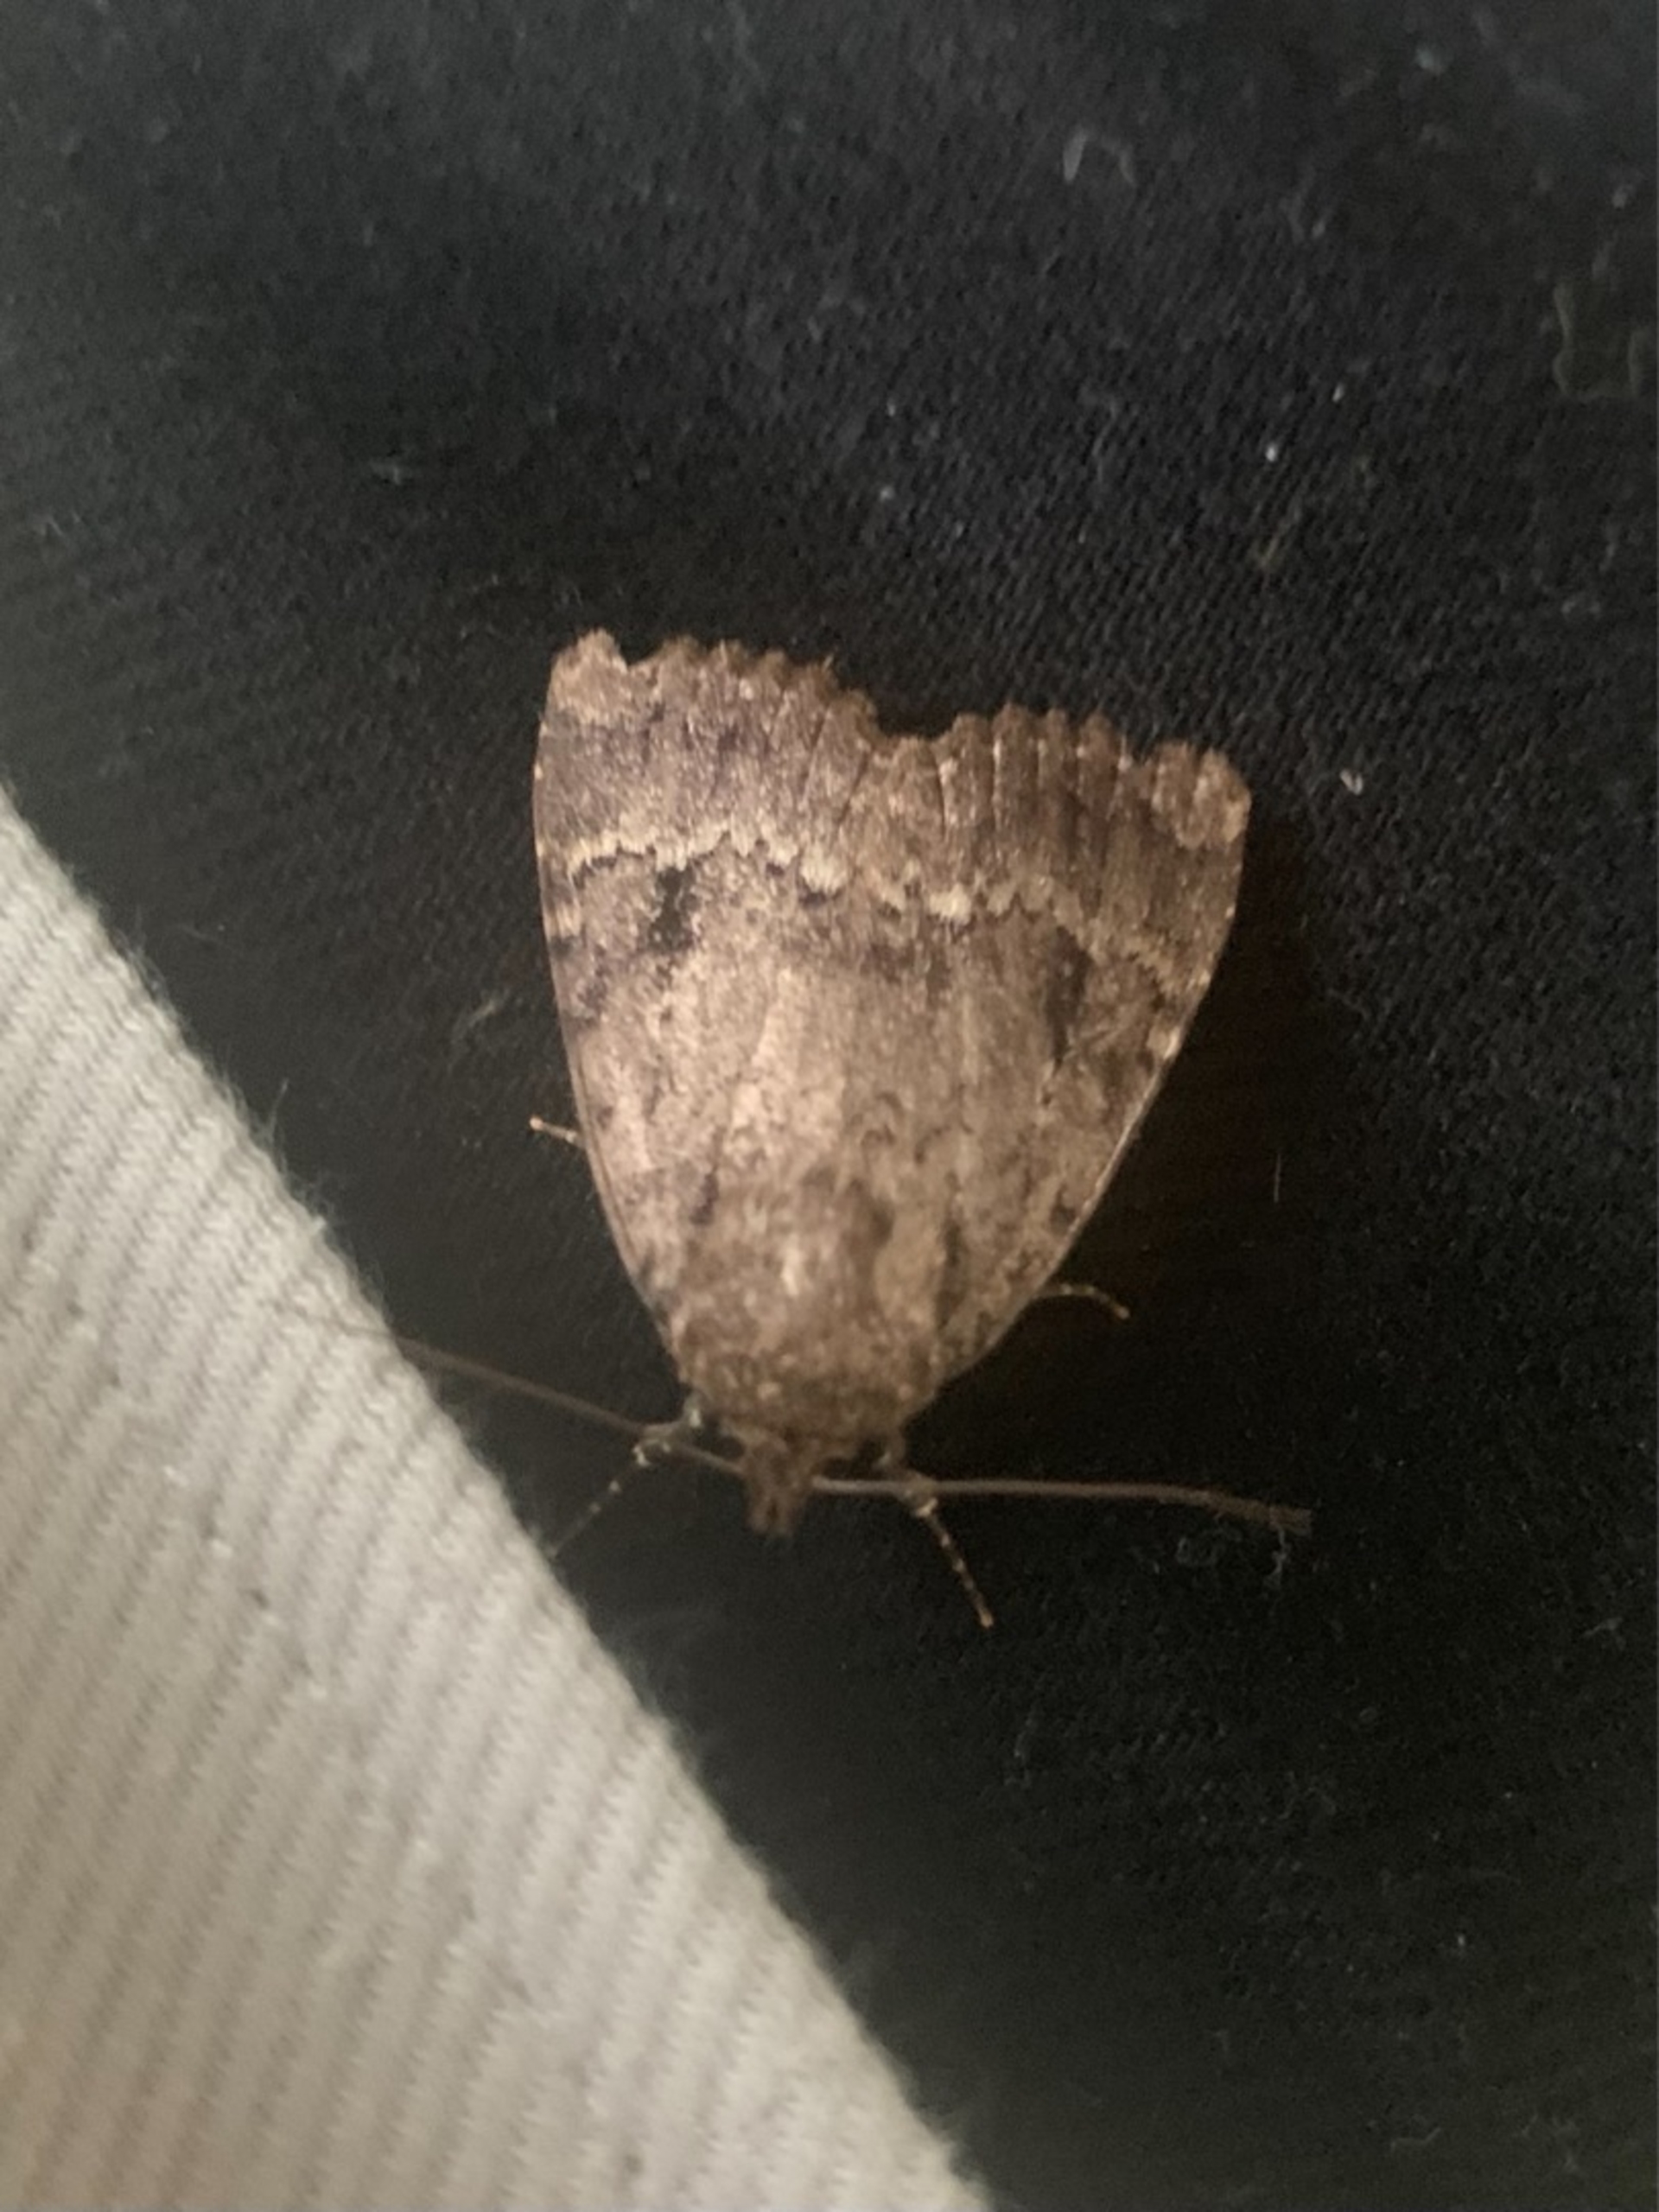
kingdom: Animalia
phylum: Arthropoda
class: Insecta
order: Lepidoptera
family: Noctuidae
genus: Amphipyra
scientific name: Amphipyra pyramidea
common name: Pyramideugle
